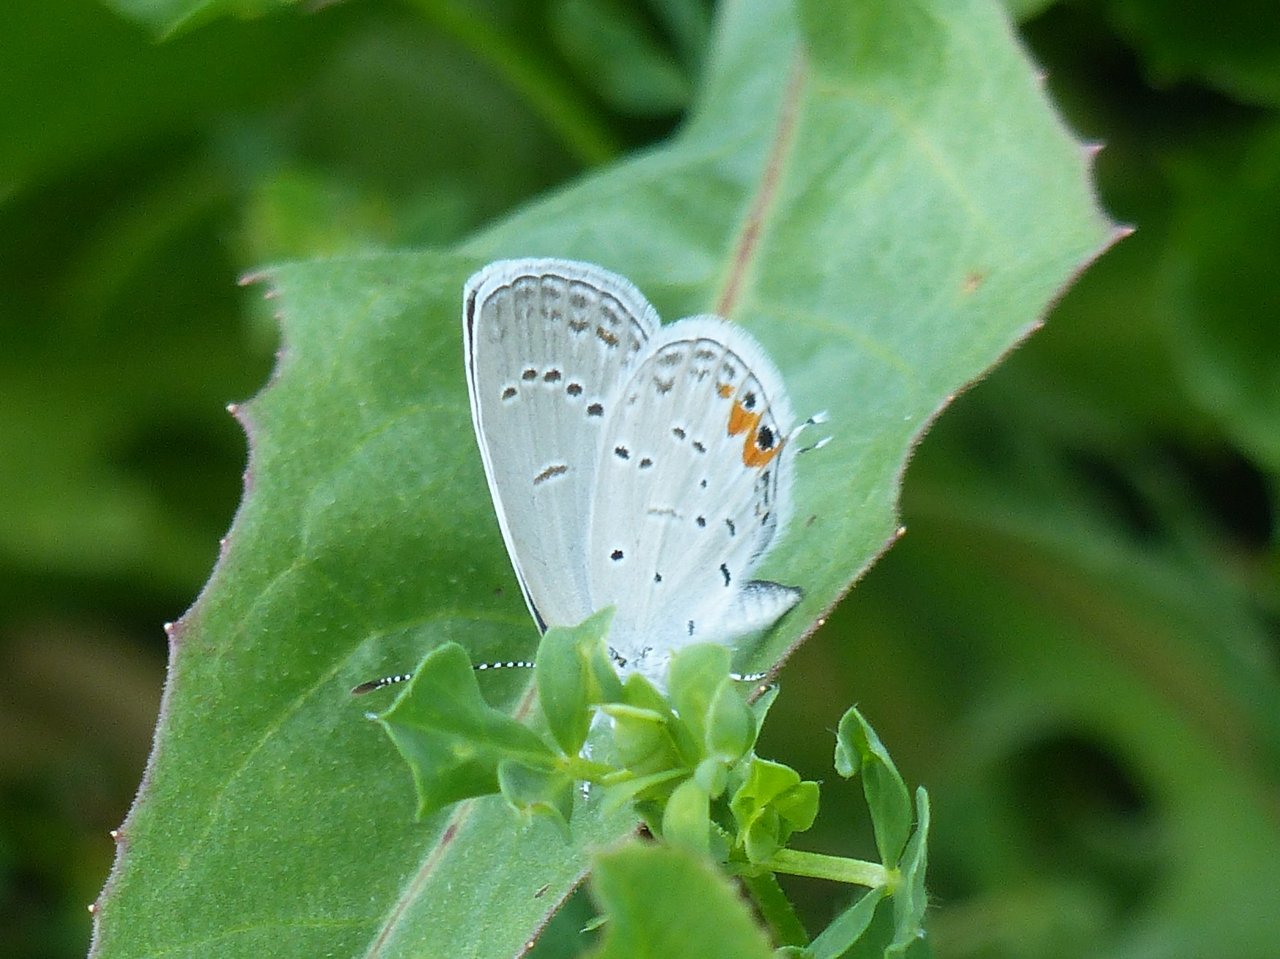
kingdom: Animalia
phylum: Arthropoda
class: Insecta
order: Lepidoptera
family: Lycaenidae
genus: Elkalyce
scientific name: Elkalyce comyntas
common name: Eastern Tailed-Blue
